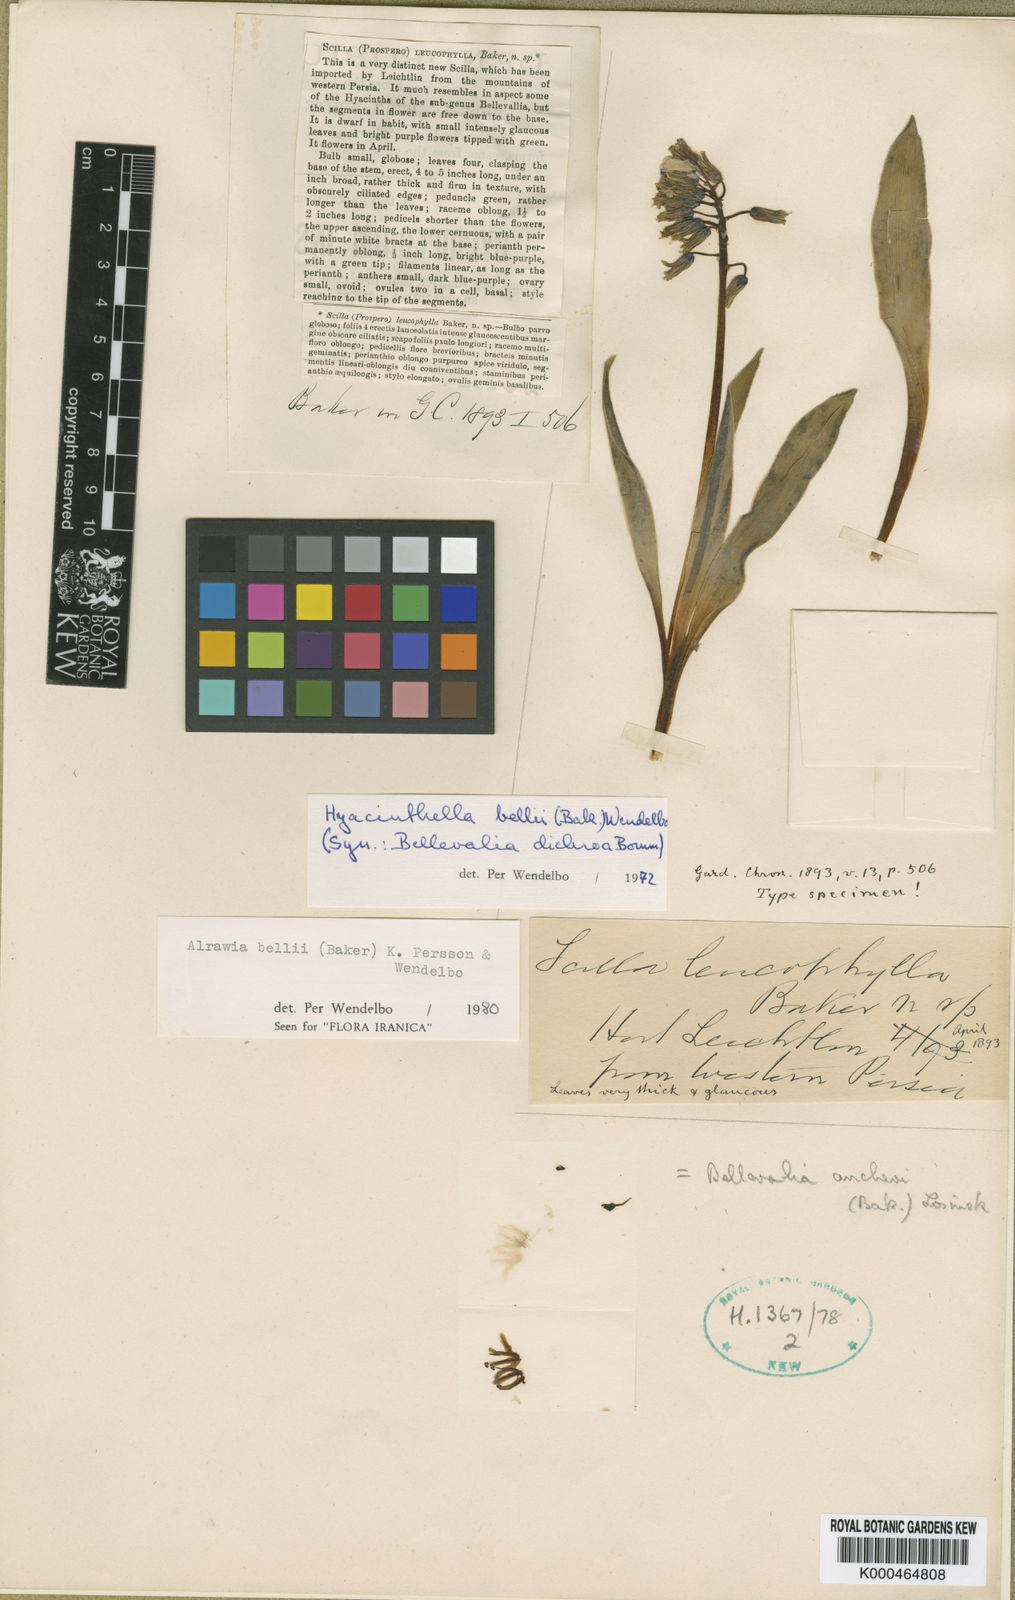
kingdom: Plantae
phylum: Tracheophyta
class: Liliopsida
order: Asparagales
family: Asparagaceae
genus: Alrawia
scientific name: Alrawia bellii
